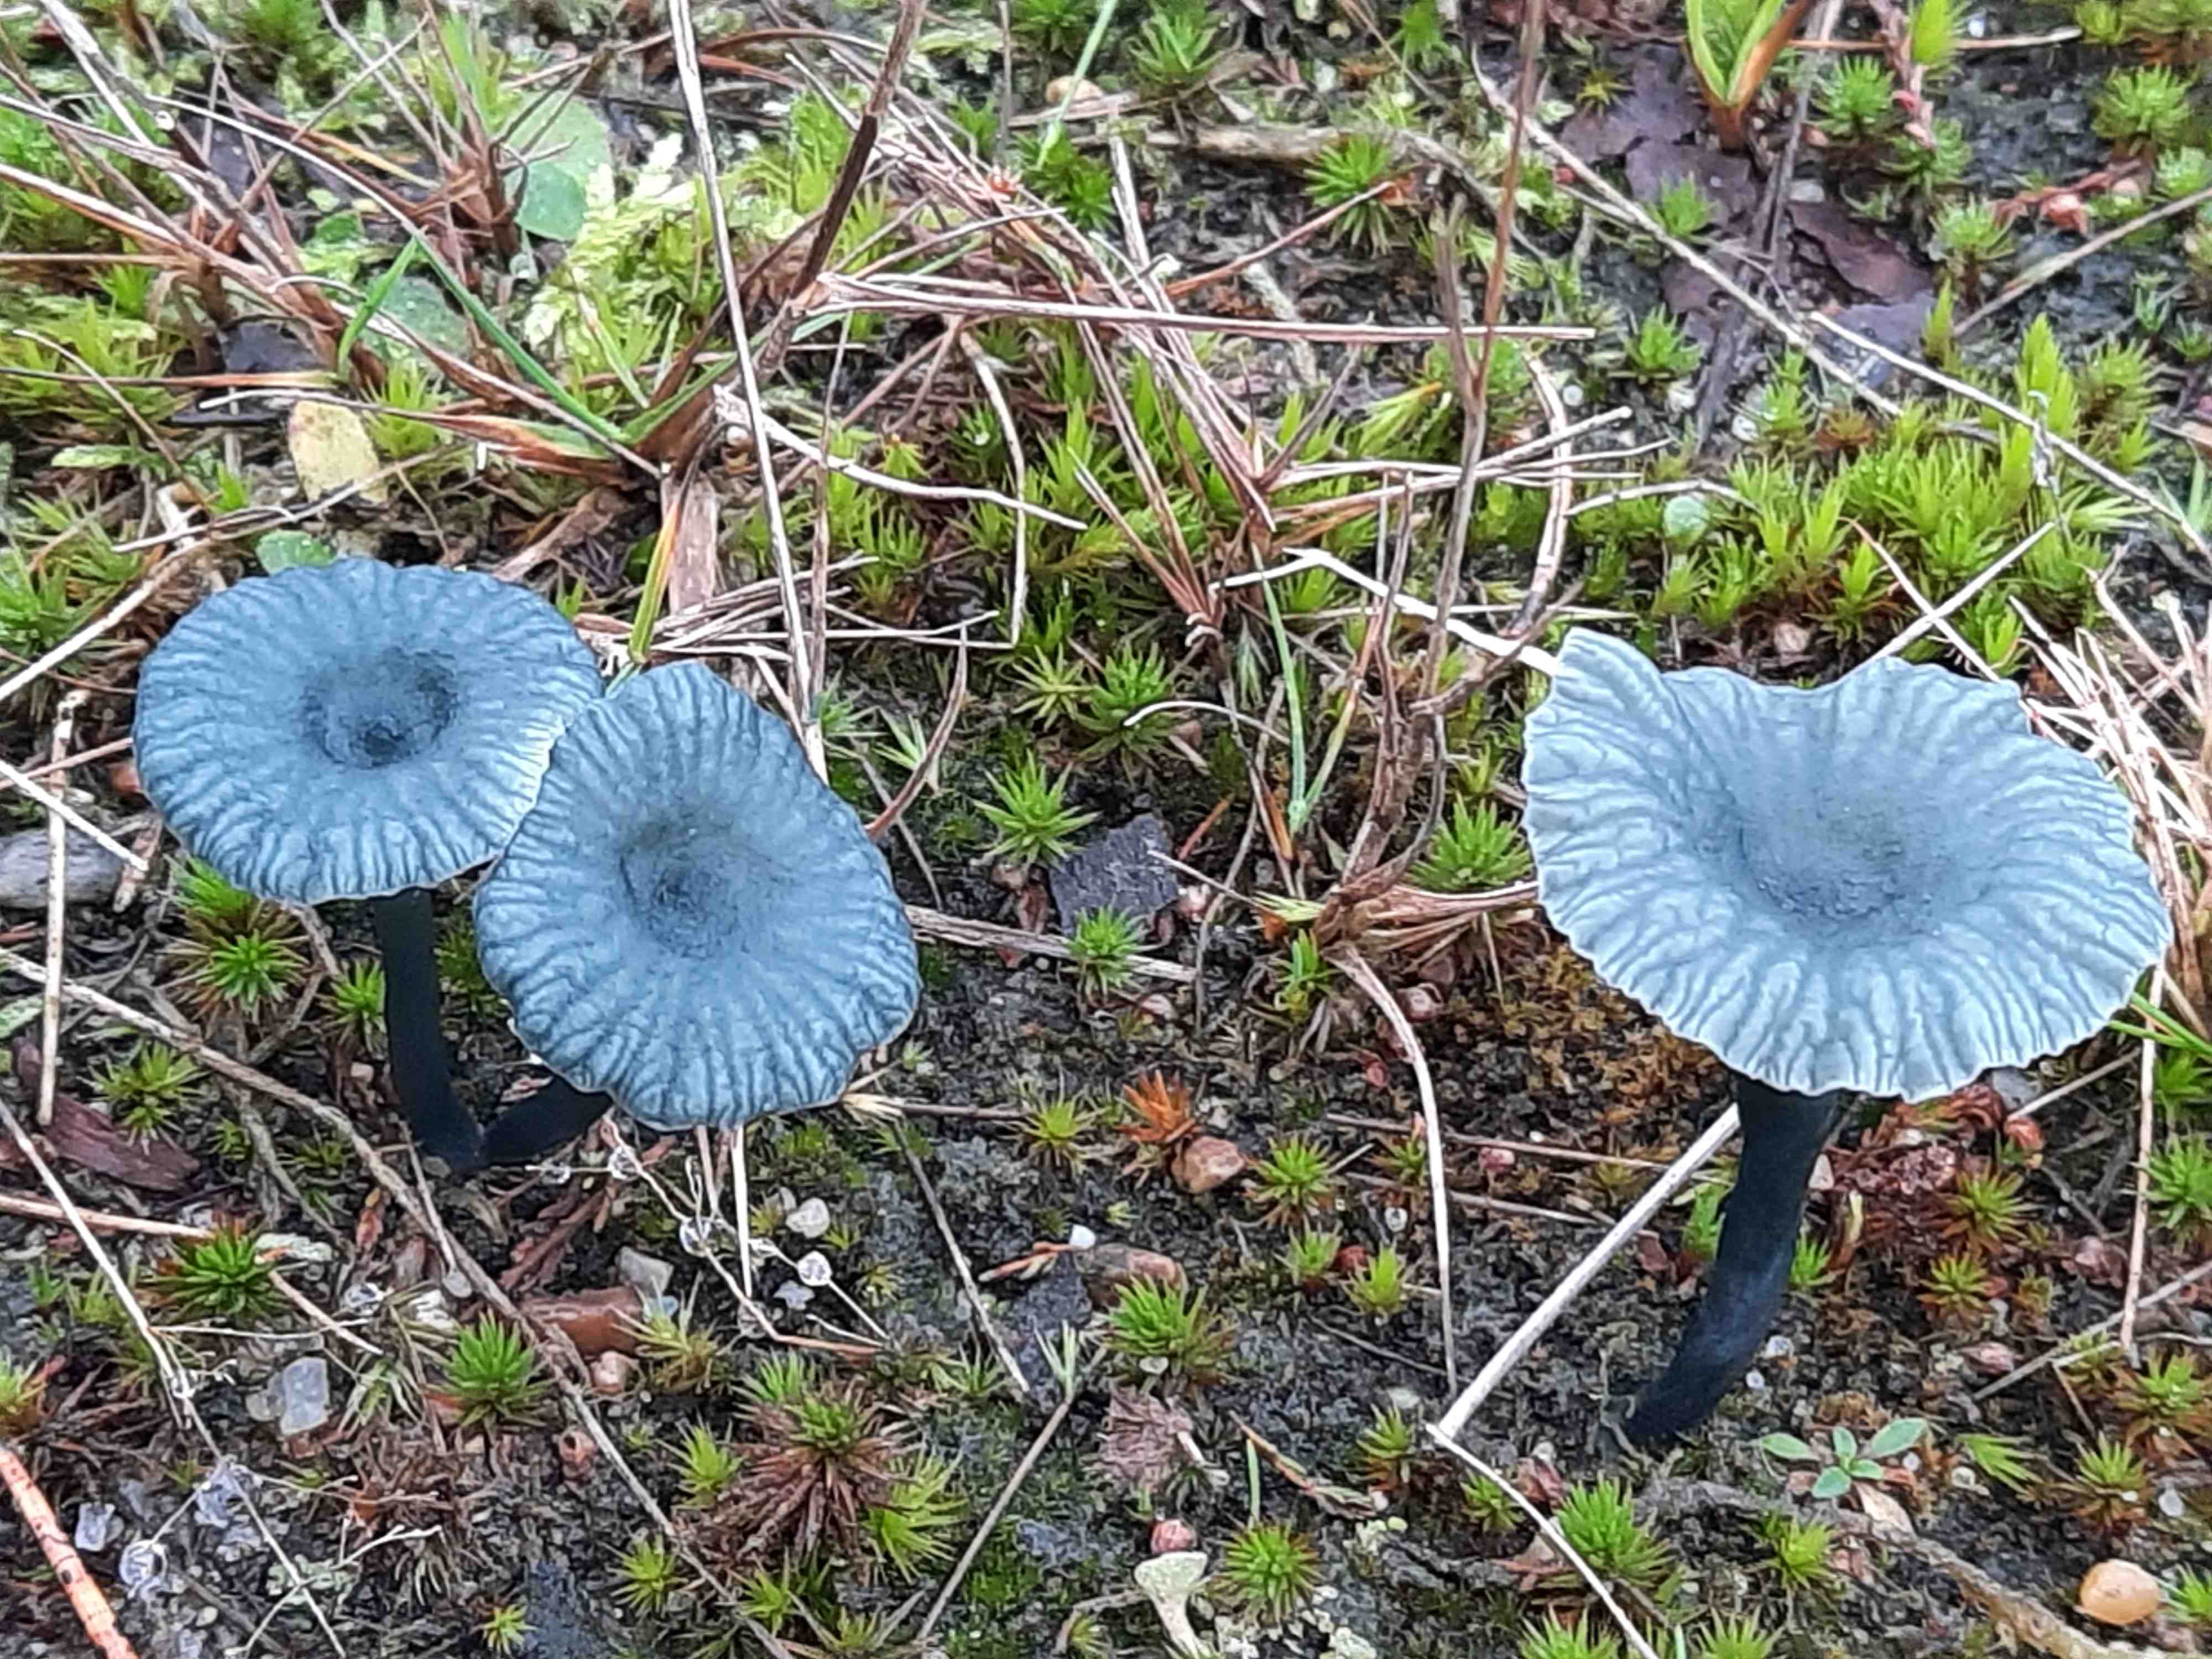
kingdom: Fungi
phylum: Basidiomycota
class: Agaricomycetes
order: Agaricales
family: Hygrophoraceae
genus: Arrhenia
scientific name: Arrhenia chlorocyanea
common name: blågrøn fontænehat
